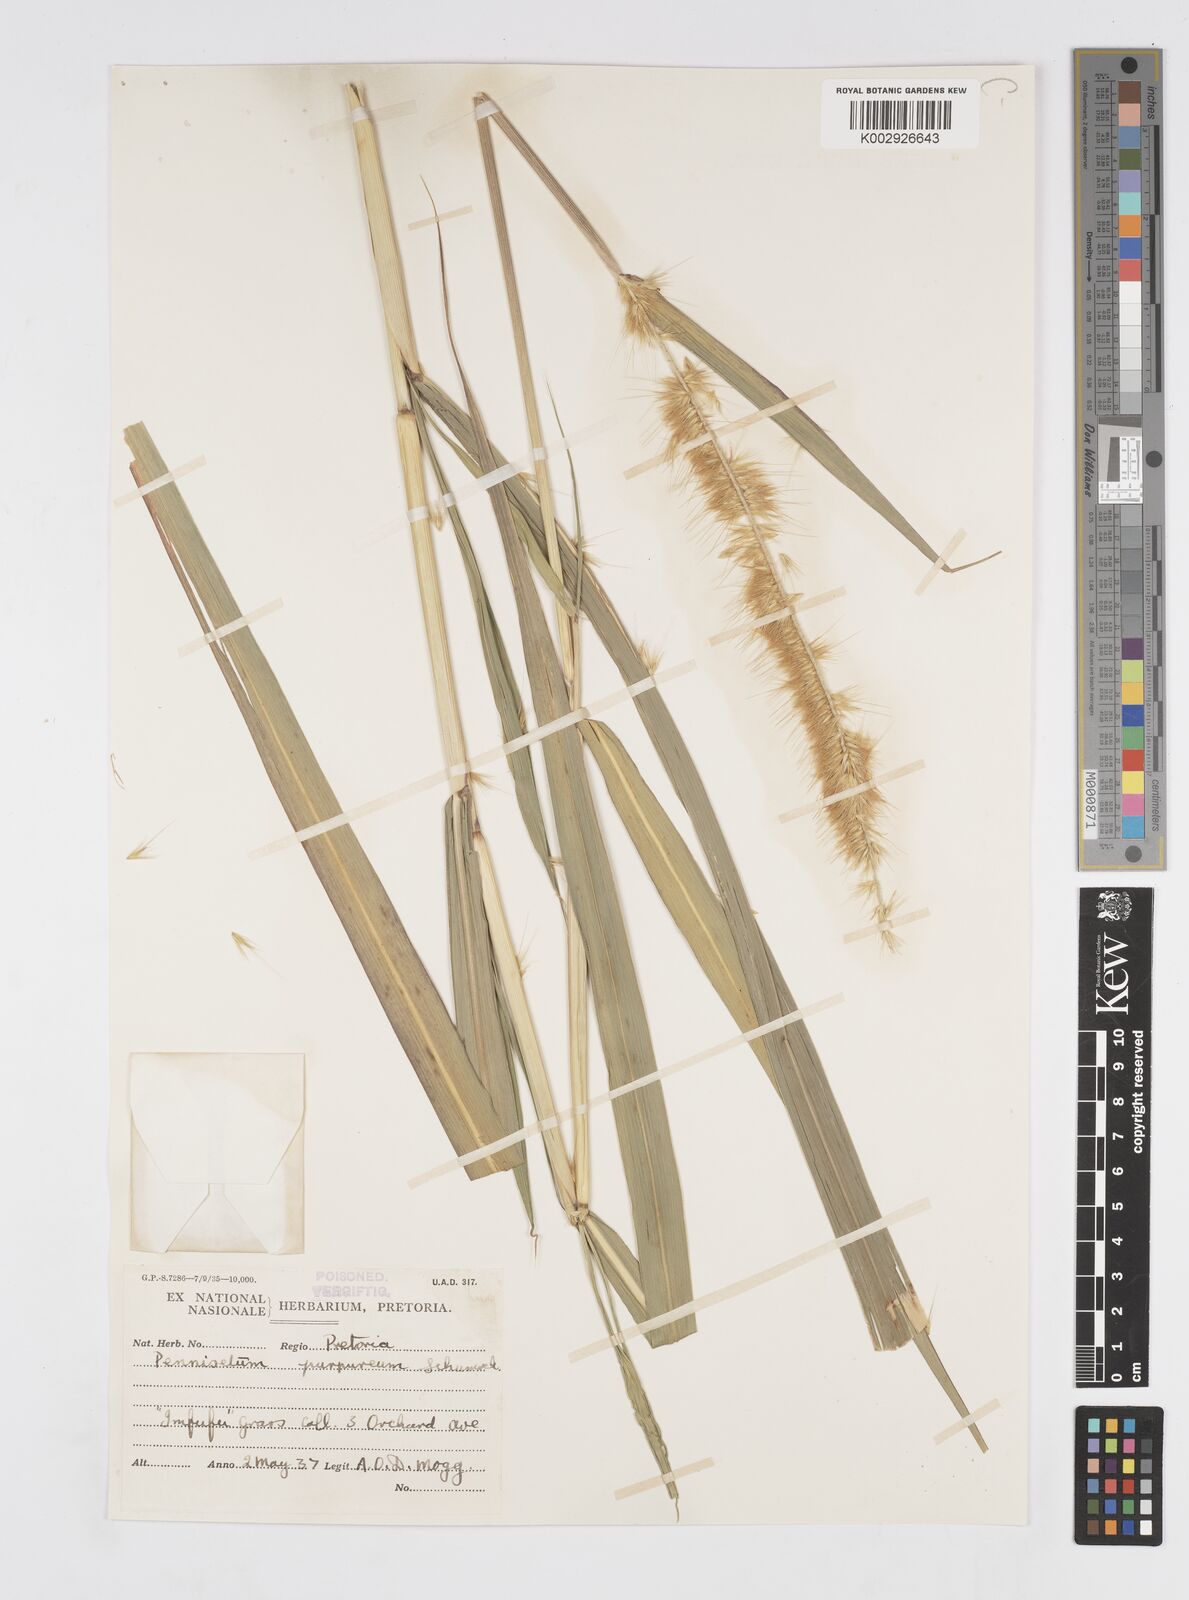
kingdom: Plantae
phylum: Tracheophyta
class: Liliopsida
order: Poales
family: Poaceae
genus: Cenchrus
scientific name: Cenchrus purpureus
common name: Elephant grass
